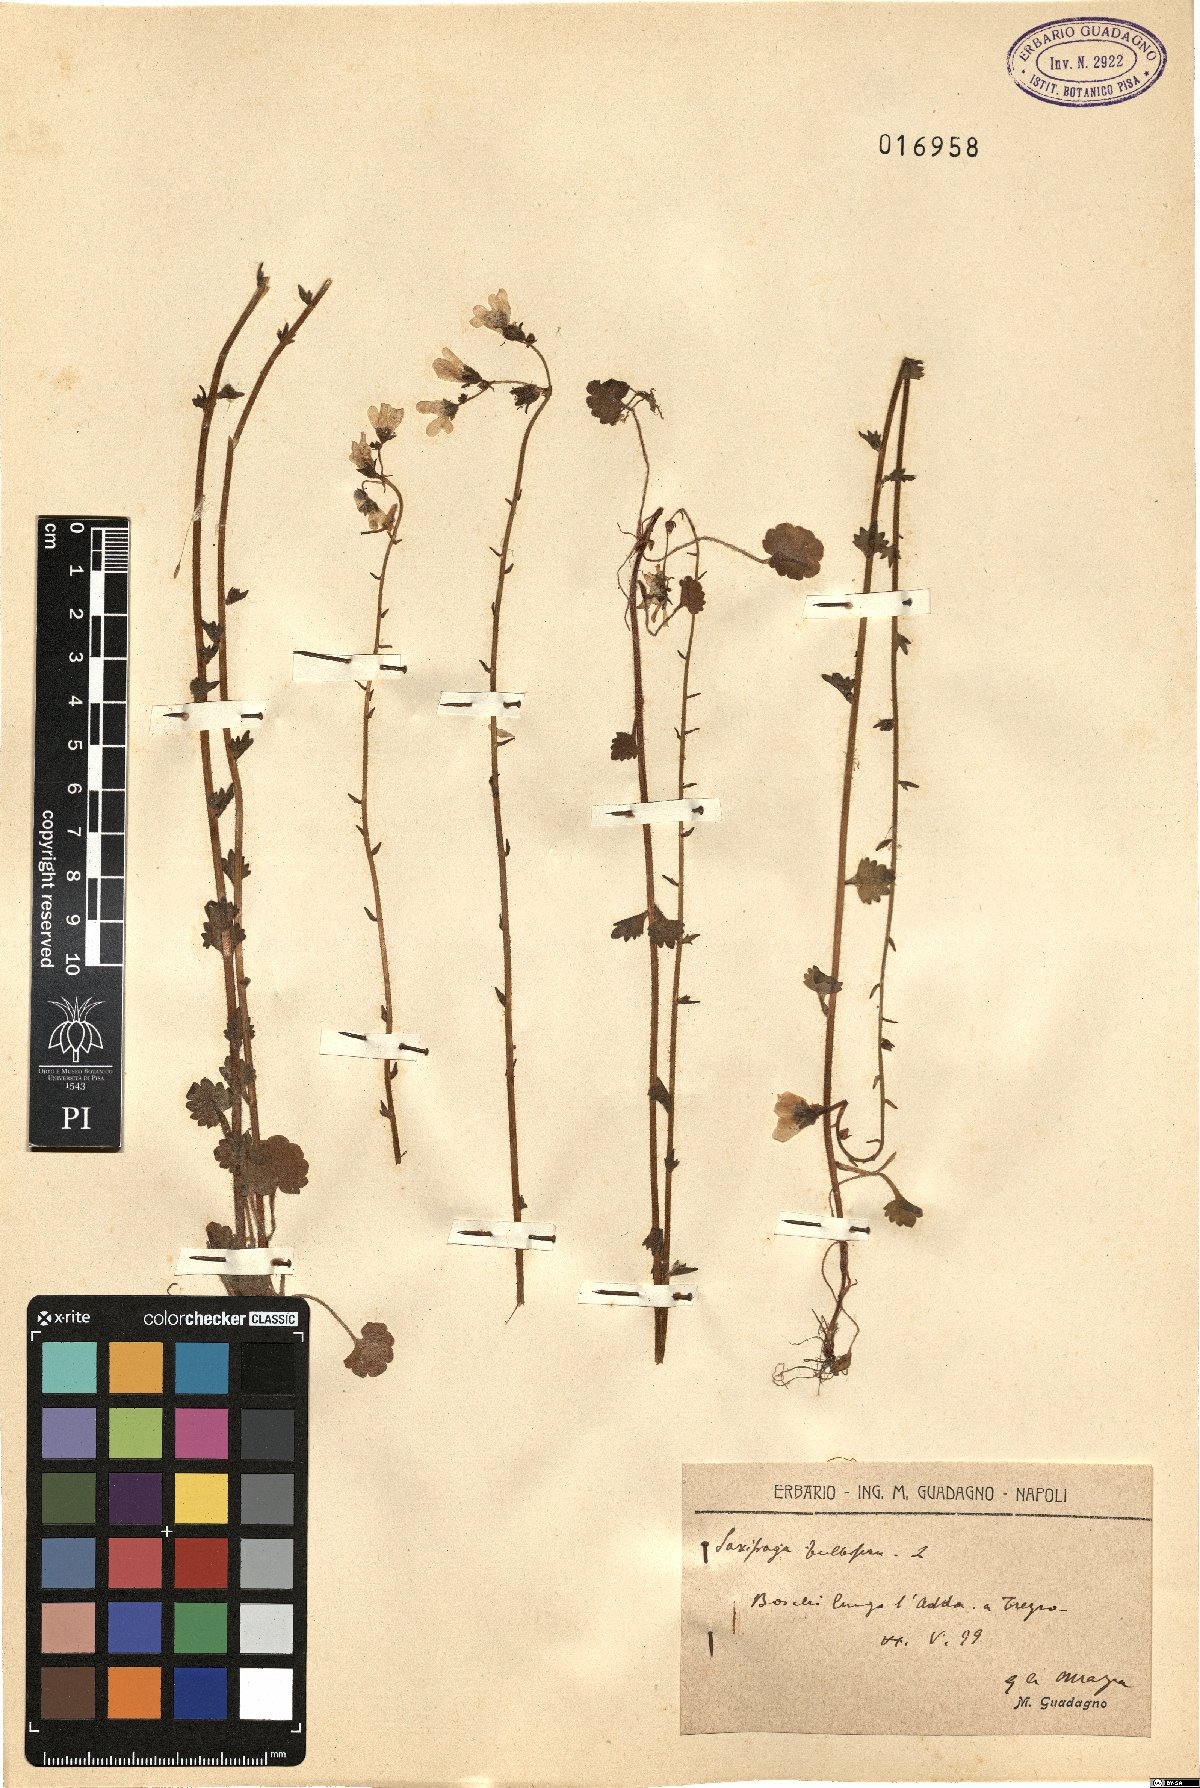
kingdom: Plantae
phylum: Tracheophyta
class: Magnoliopsida
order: Saxifragales
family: Saxifragaceae
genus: Saxifraga
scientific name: Saxifraga bulbifera
